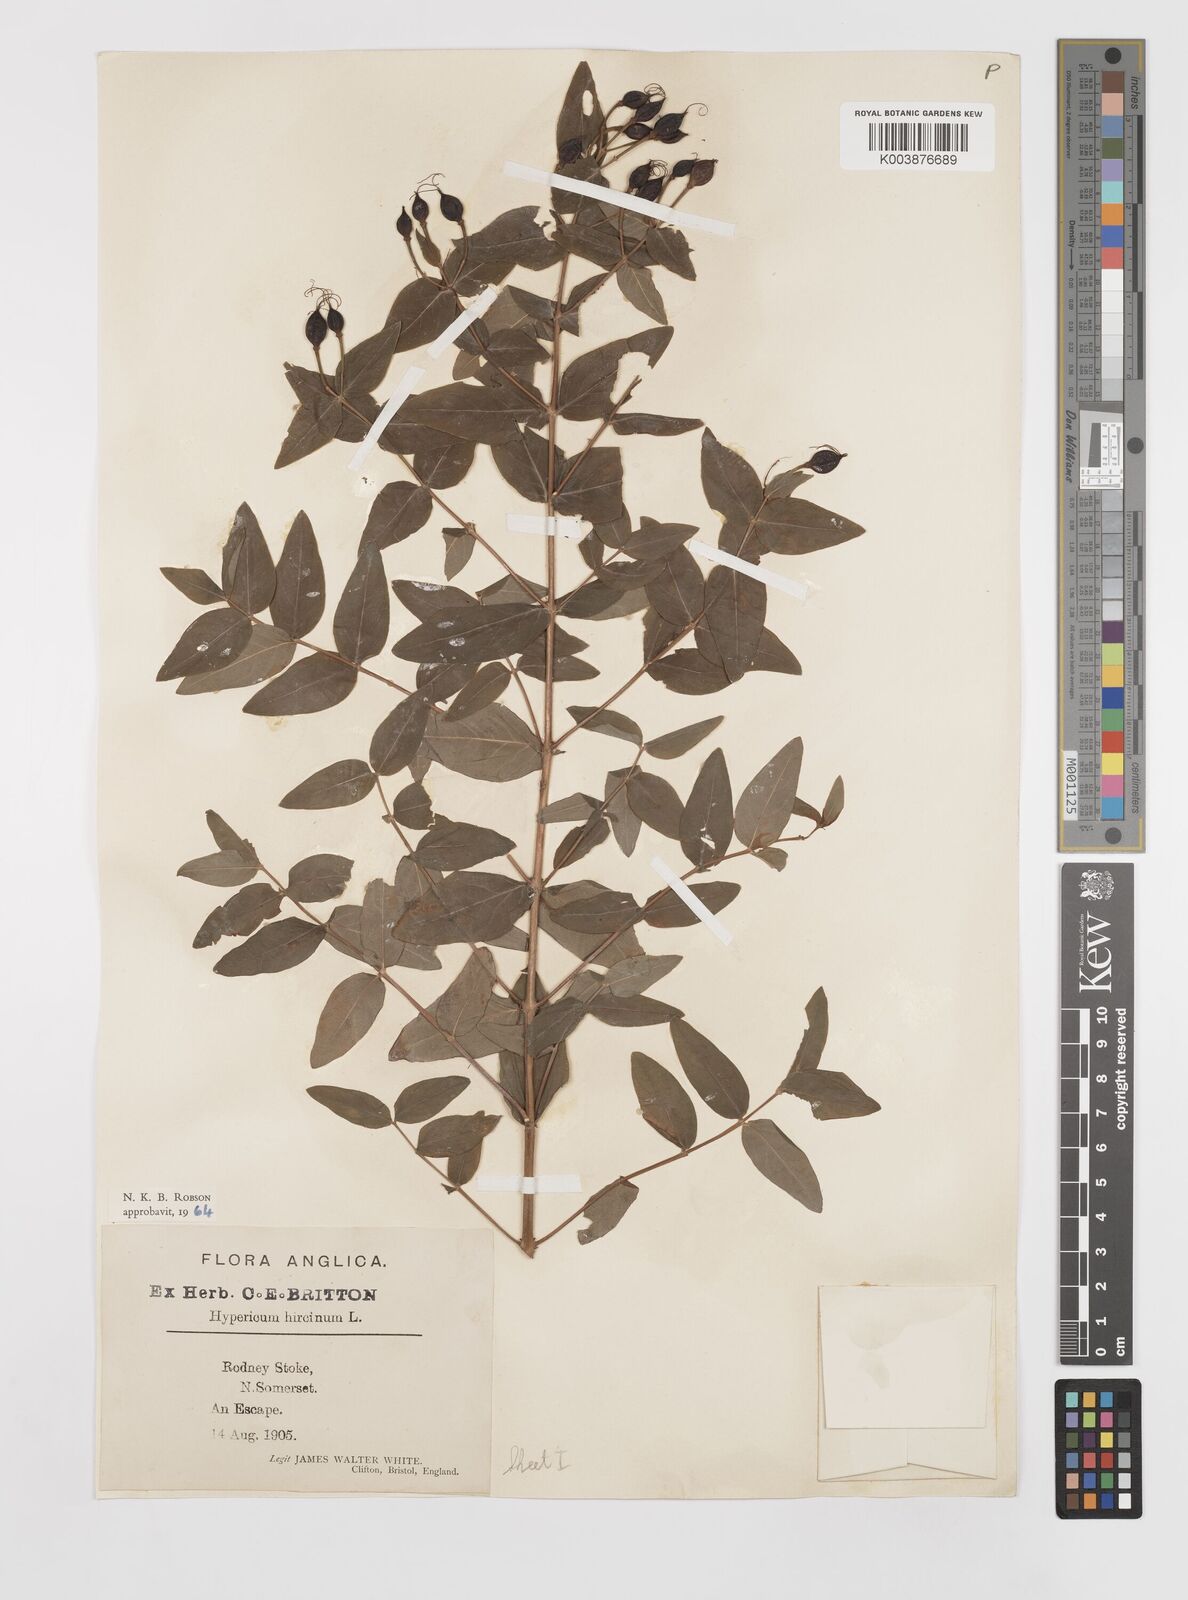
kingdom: Plantae
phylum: Tracheophyta
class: Magnoliopsida
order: Malpighiales
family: Hypericaceae
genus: Hypericum
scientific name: Hypericum hircinum
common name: Stinking tutsan
